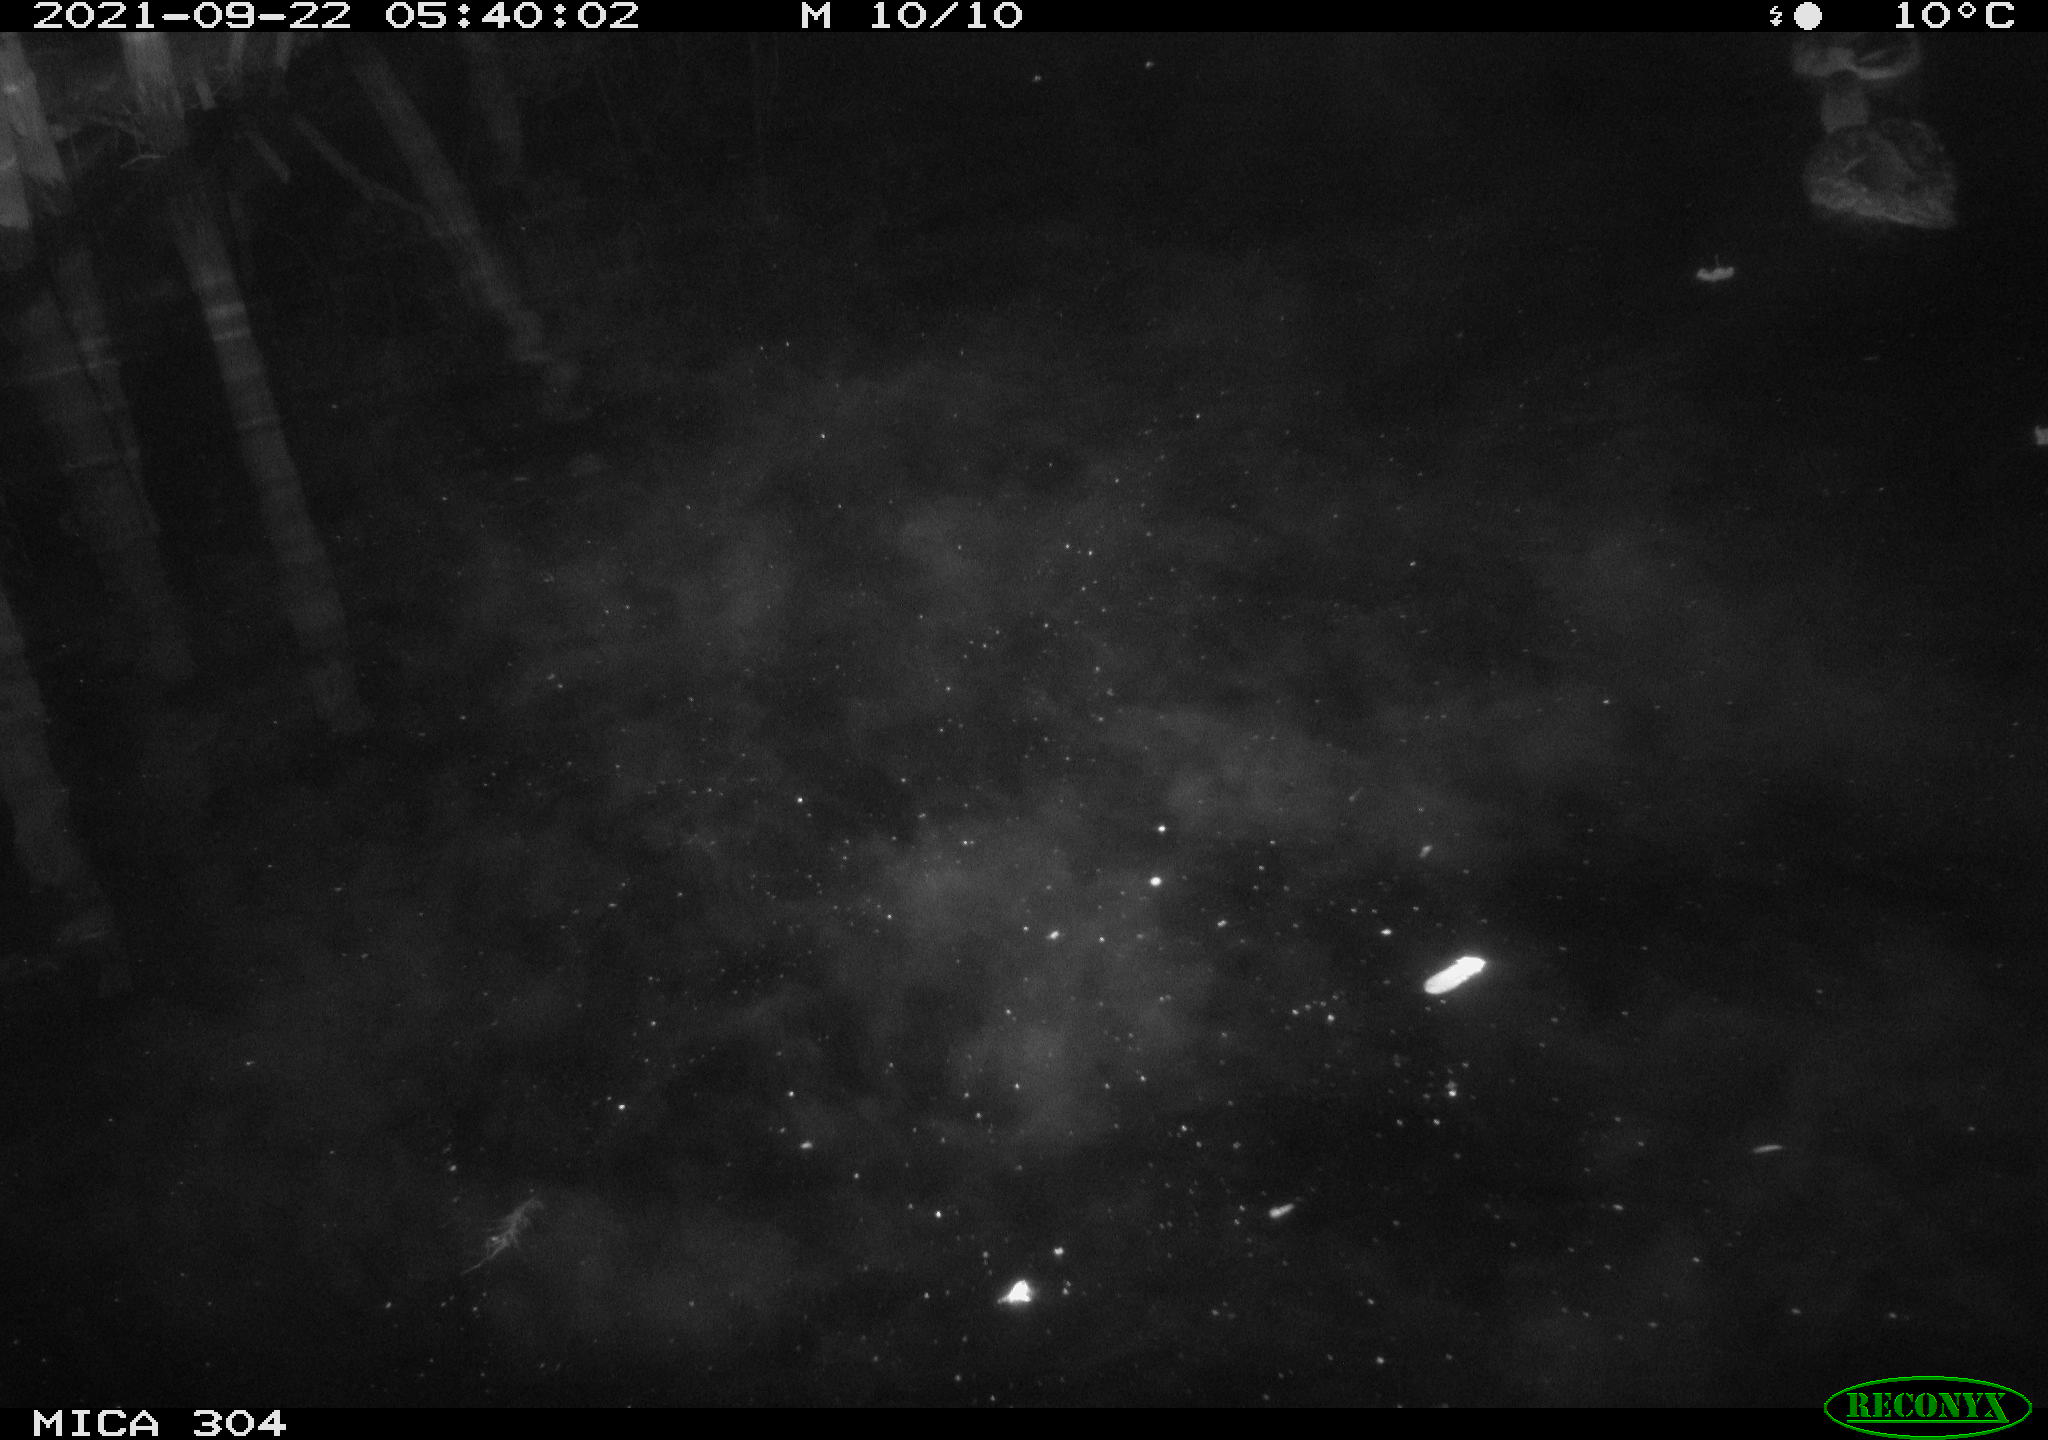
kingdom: Animalia
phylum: Chordata
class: Aves
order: Anseriformes
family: Anatidae
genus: Anas
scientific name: Anas platyrhynchos
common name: Mallard
